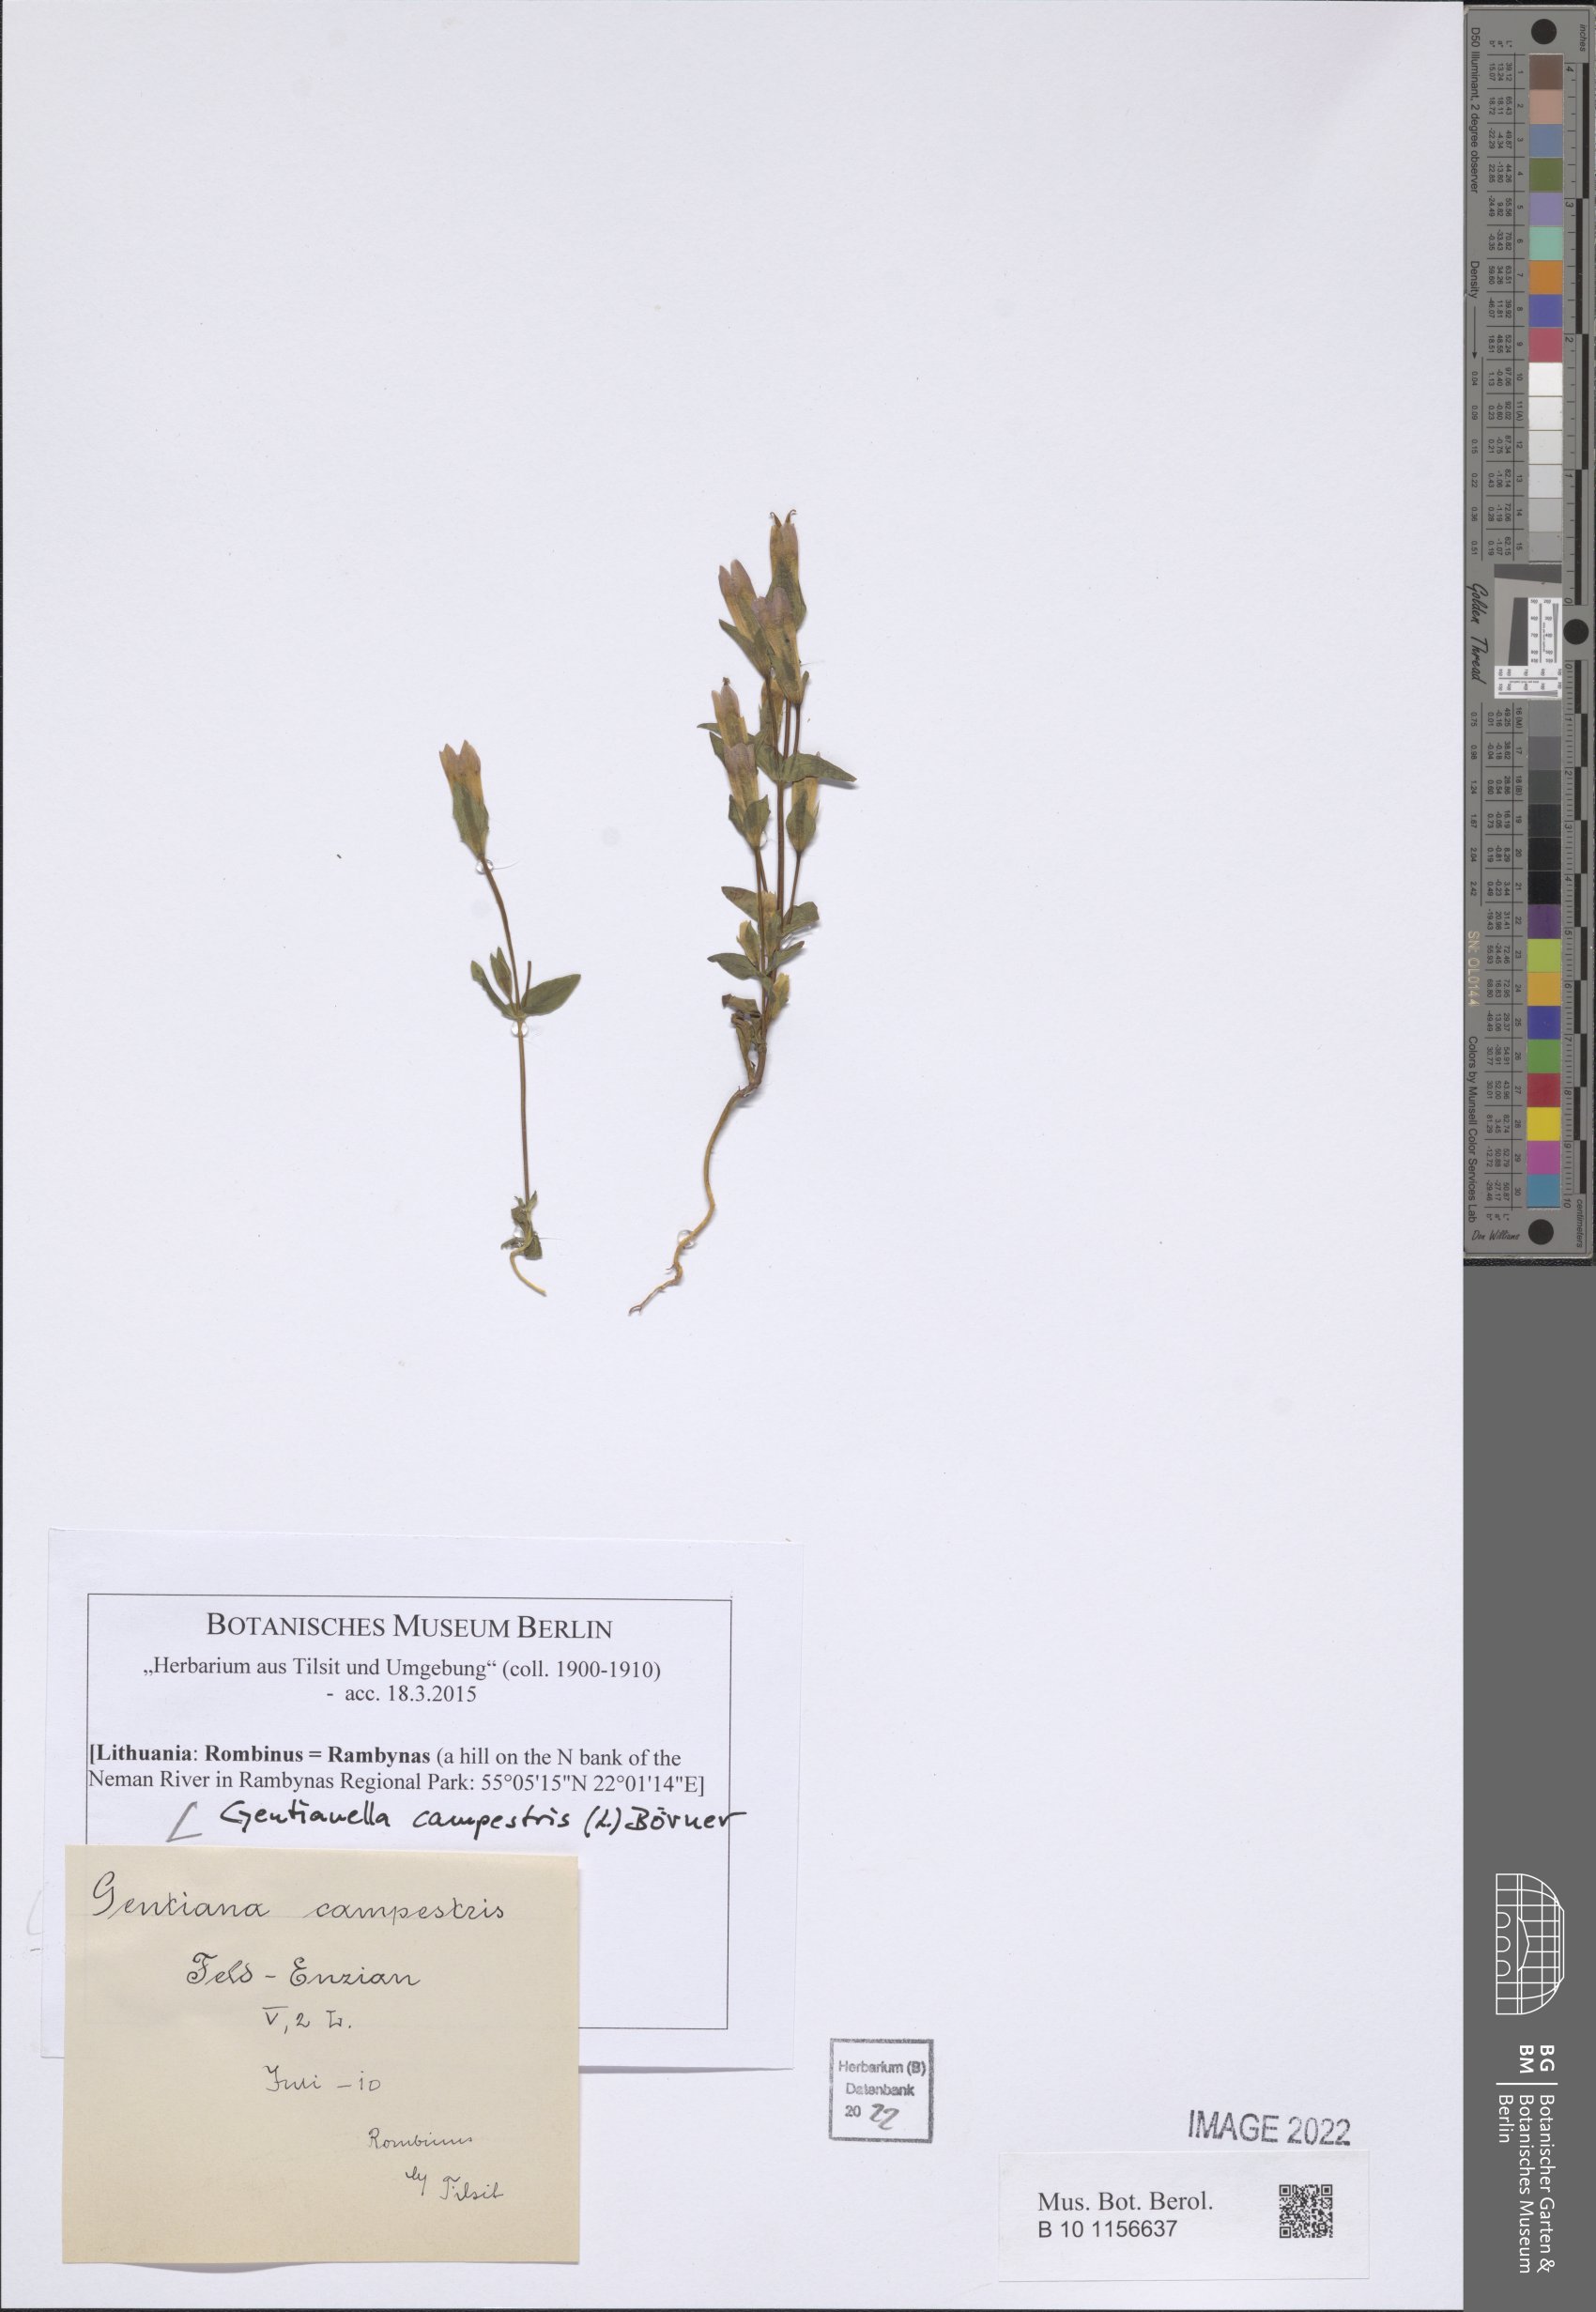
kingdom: Plantae
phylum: Tracheophyta
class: Magnoliopsida
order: Gentianales
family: Gentianaceae
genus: Gentianella
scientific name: Gentianella campestris
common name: Field gentian
